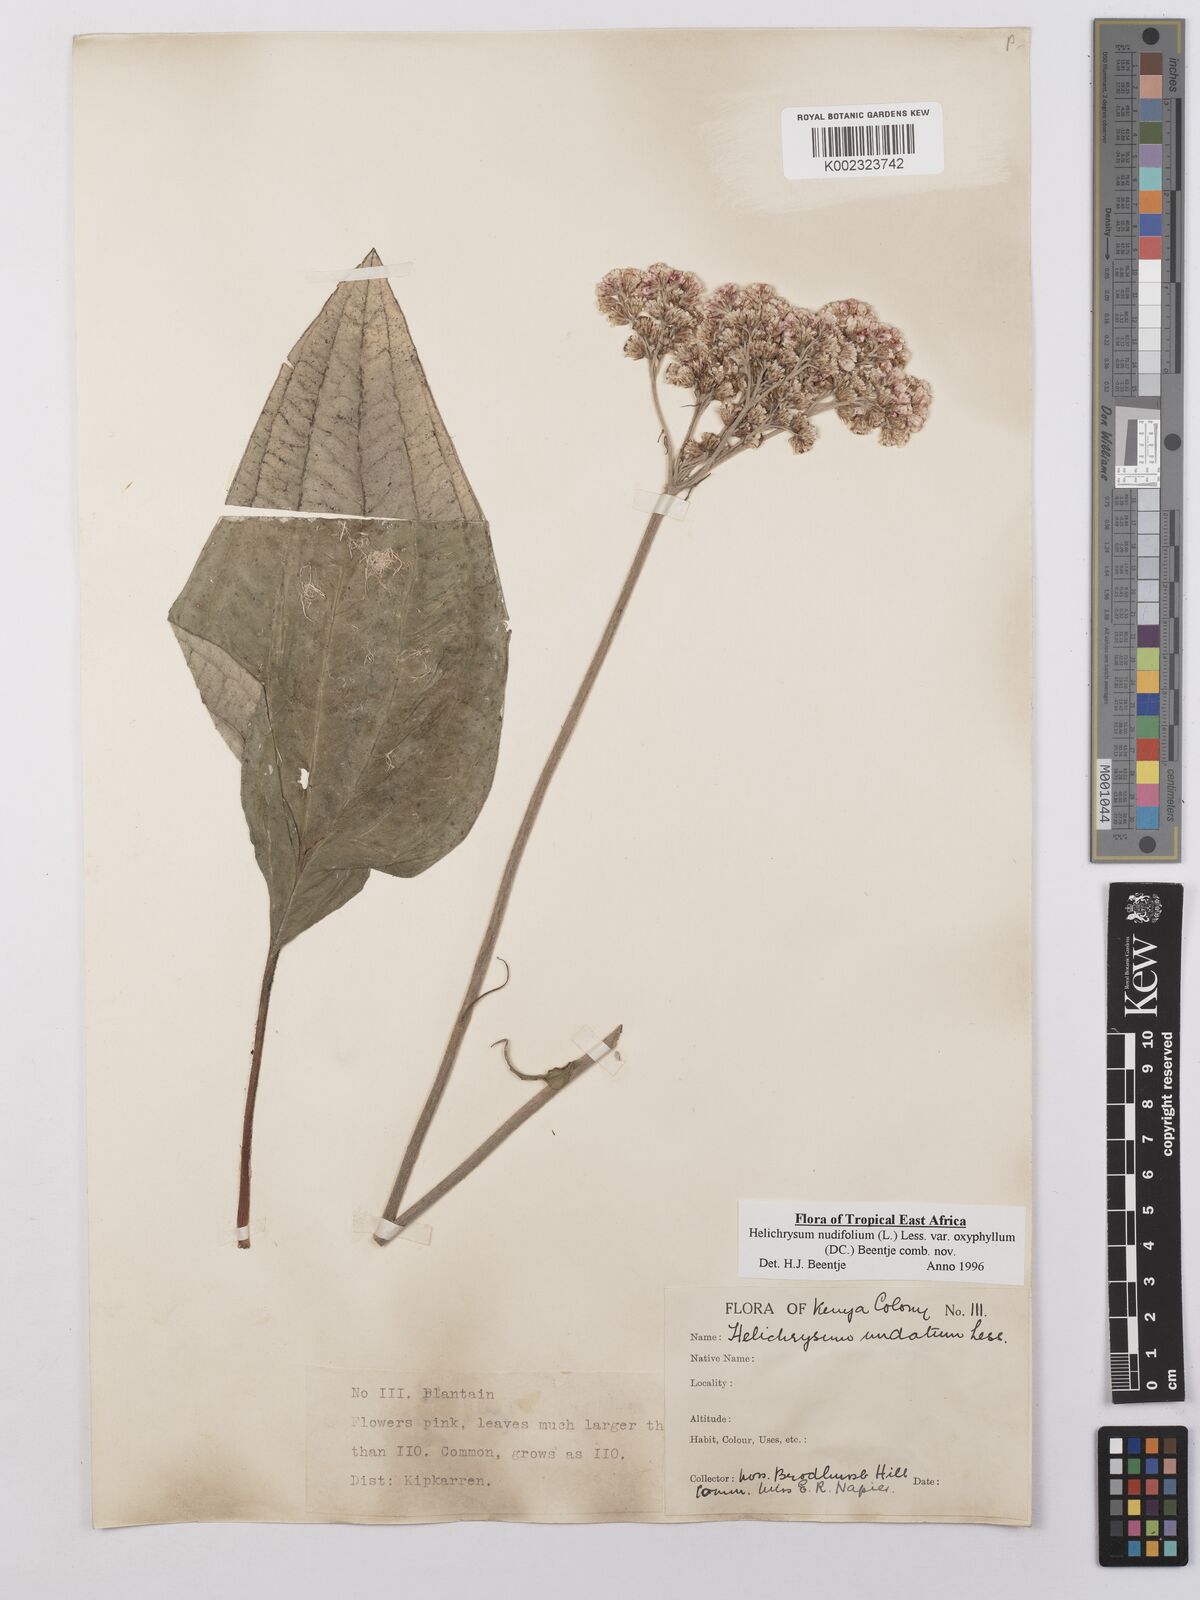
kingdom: Plantae
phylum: Tracheophyta
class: Magnoliopsida
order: Asterales
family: Asteraceae
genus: Helichrysum
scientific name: Helichrysum nudifolium
